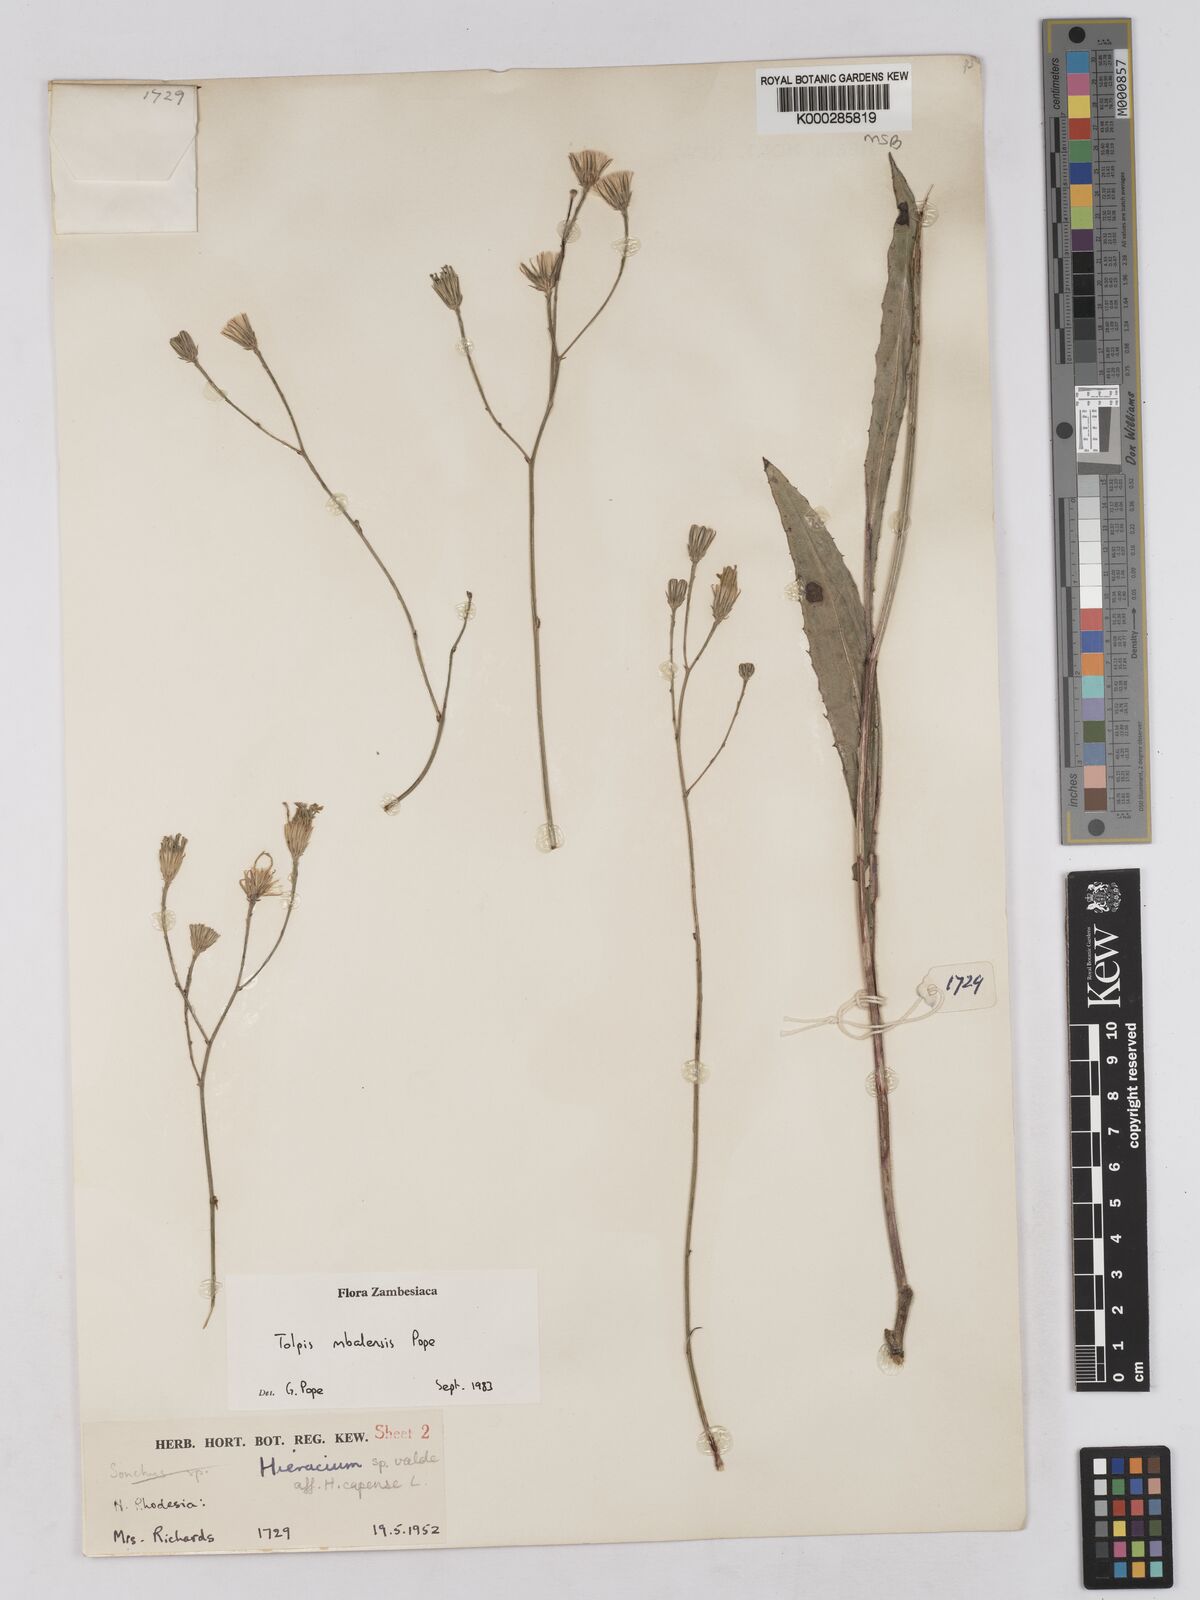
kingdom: Plantae
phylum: Tracheophyta
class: Magnoliopsida
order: Asterales
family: Asteraceae
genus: Tolpis
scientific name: Tolpis mbalensis
